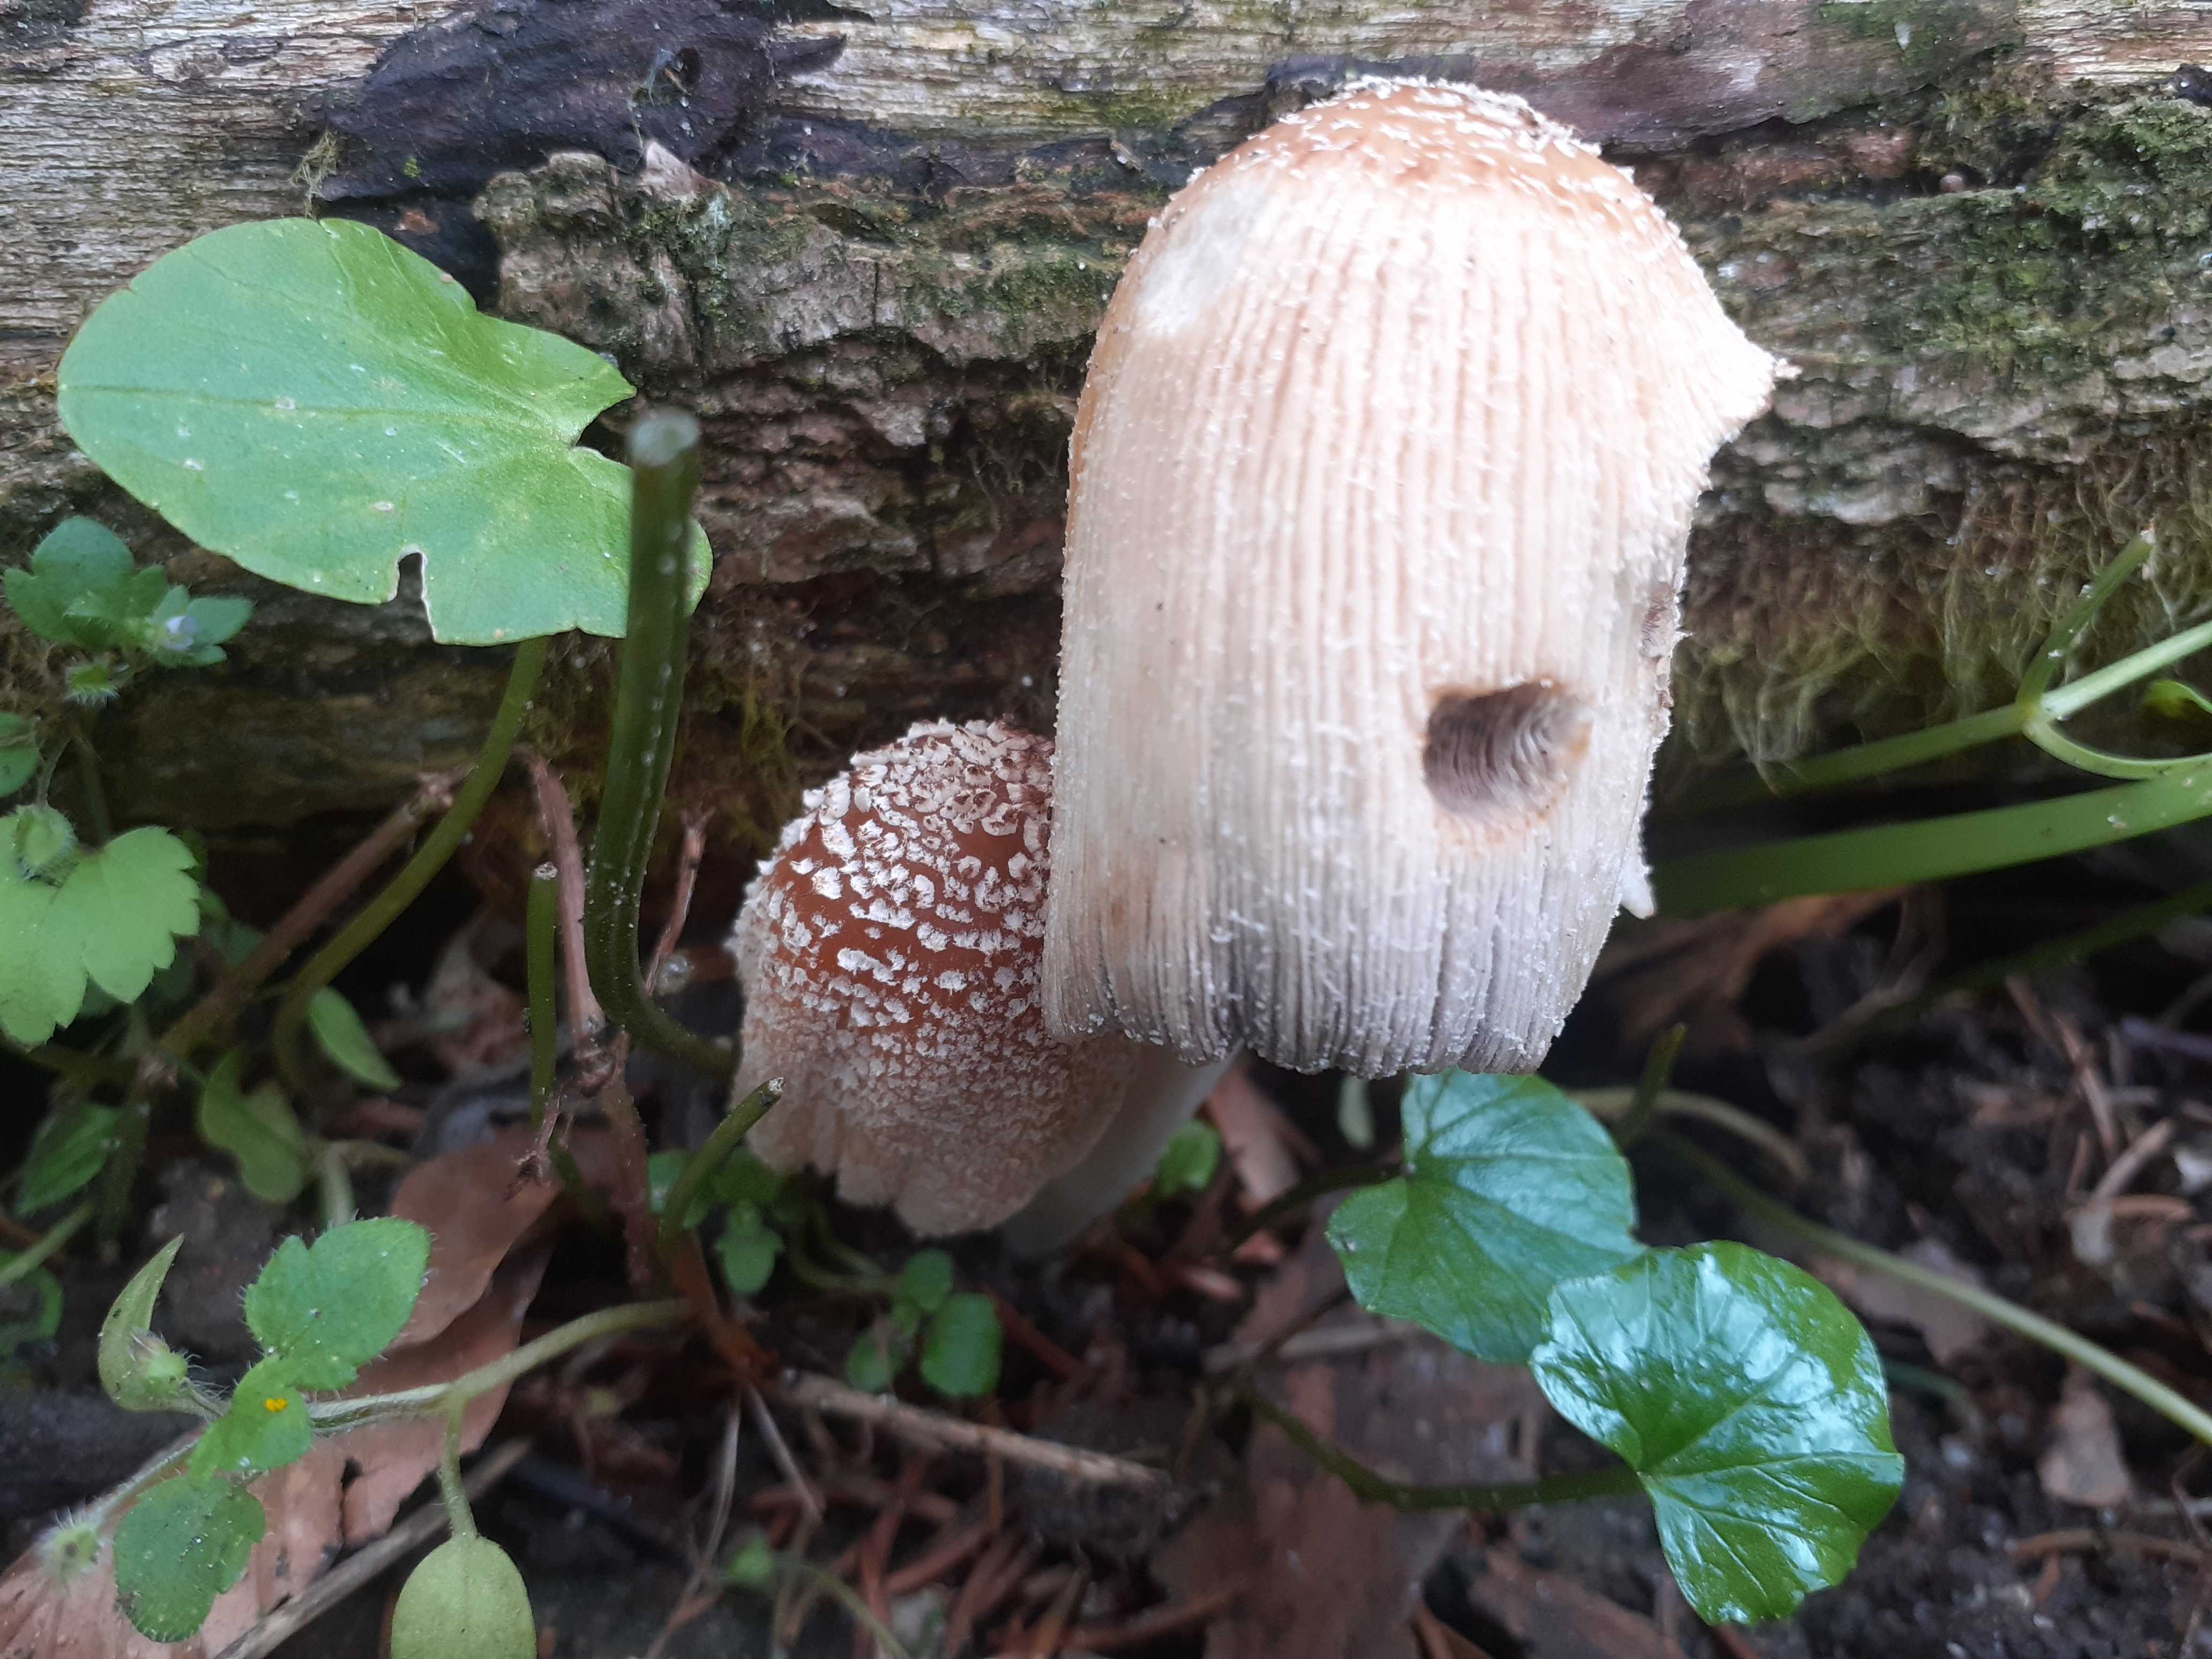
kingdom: Fungi
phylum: Basidiomycota
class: Agaricomycetes
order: Agaricales
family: Psathyrellaceae
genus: Coprinellus
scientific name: Coprinellus
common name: blækhat
